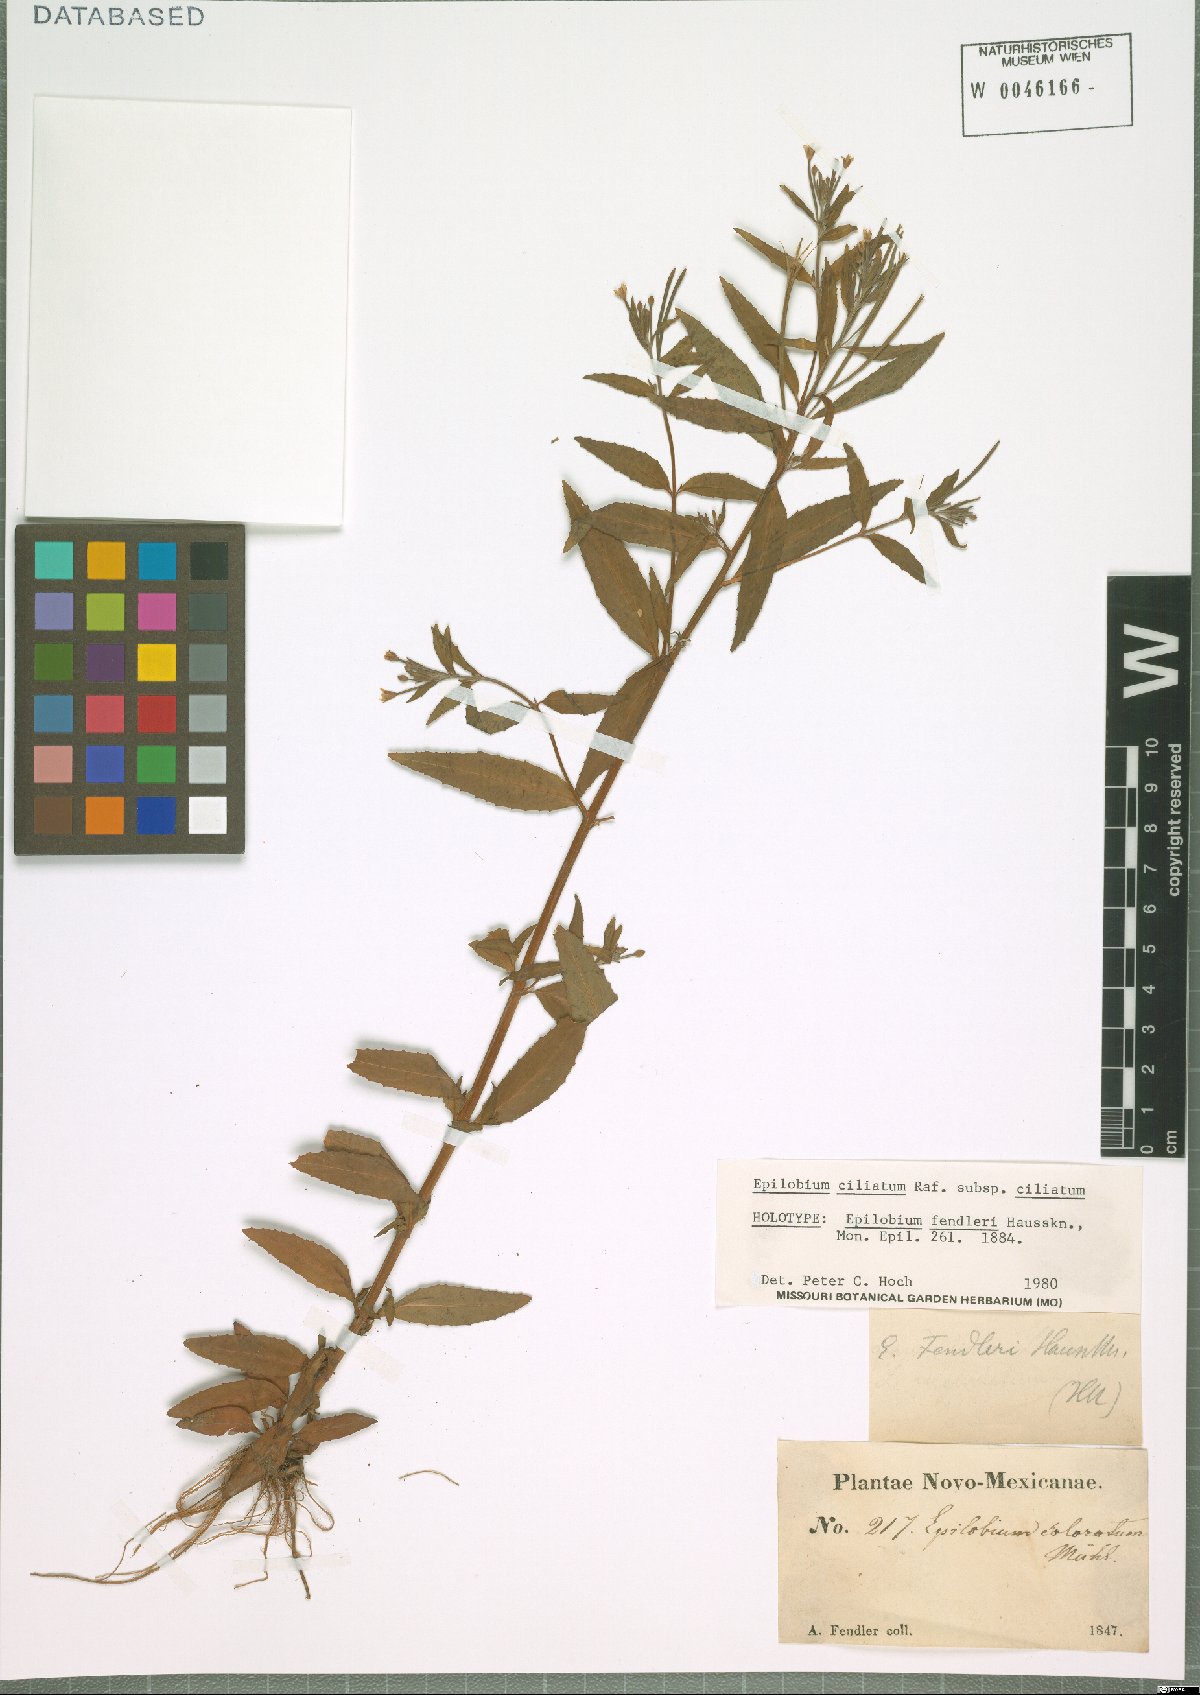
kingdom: Plantae
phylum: Tracheophyta
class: Magnoliopsida
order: Myrtales
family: Onagraceae
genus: Epilobium
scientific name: Epilobium ciliatum
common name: American willowherb
